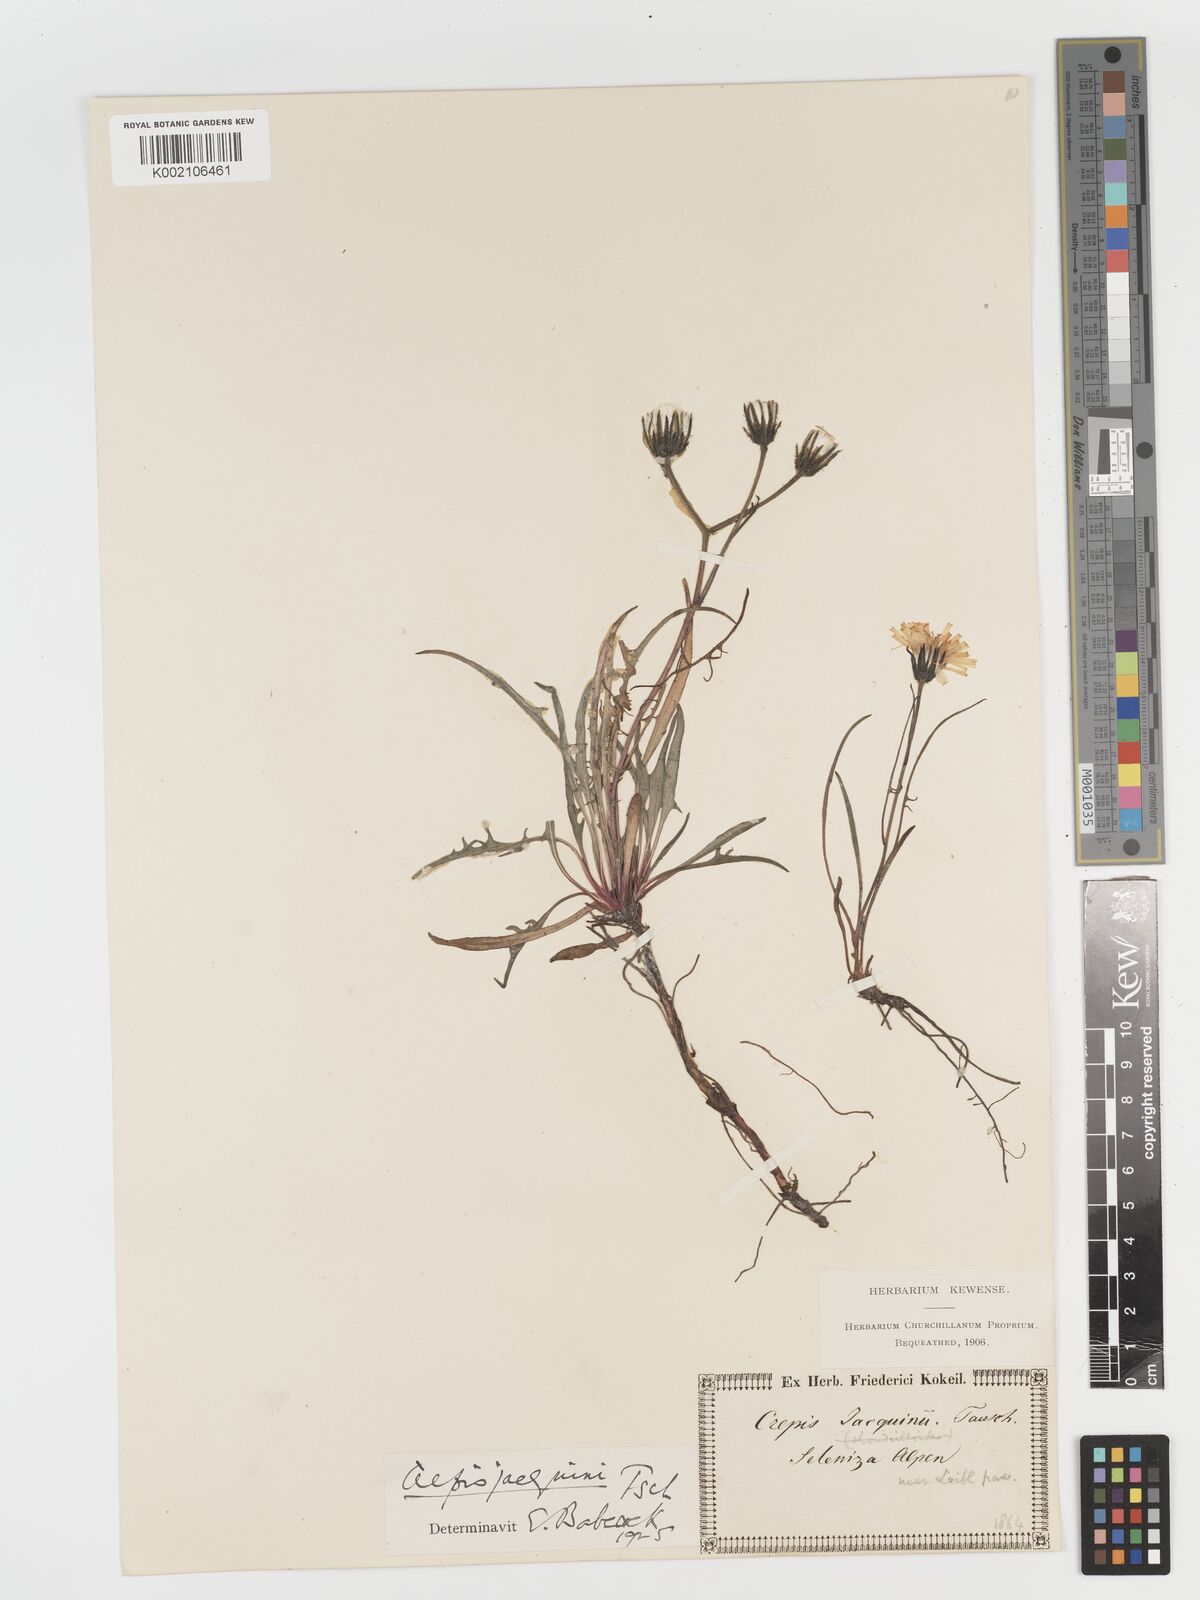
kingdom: Plantae
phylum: Tracheophyta
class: Magnoliopsida
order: Asterales
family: Asteraceae
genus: Crepis
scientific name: Crepis jacquinii
